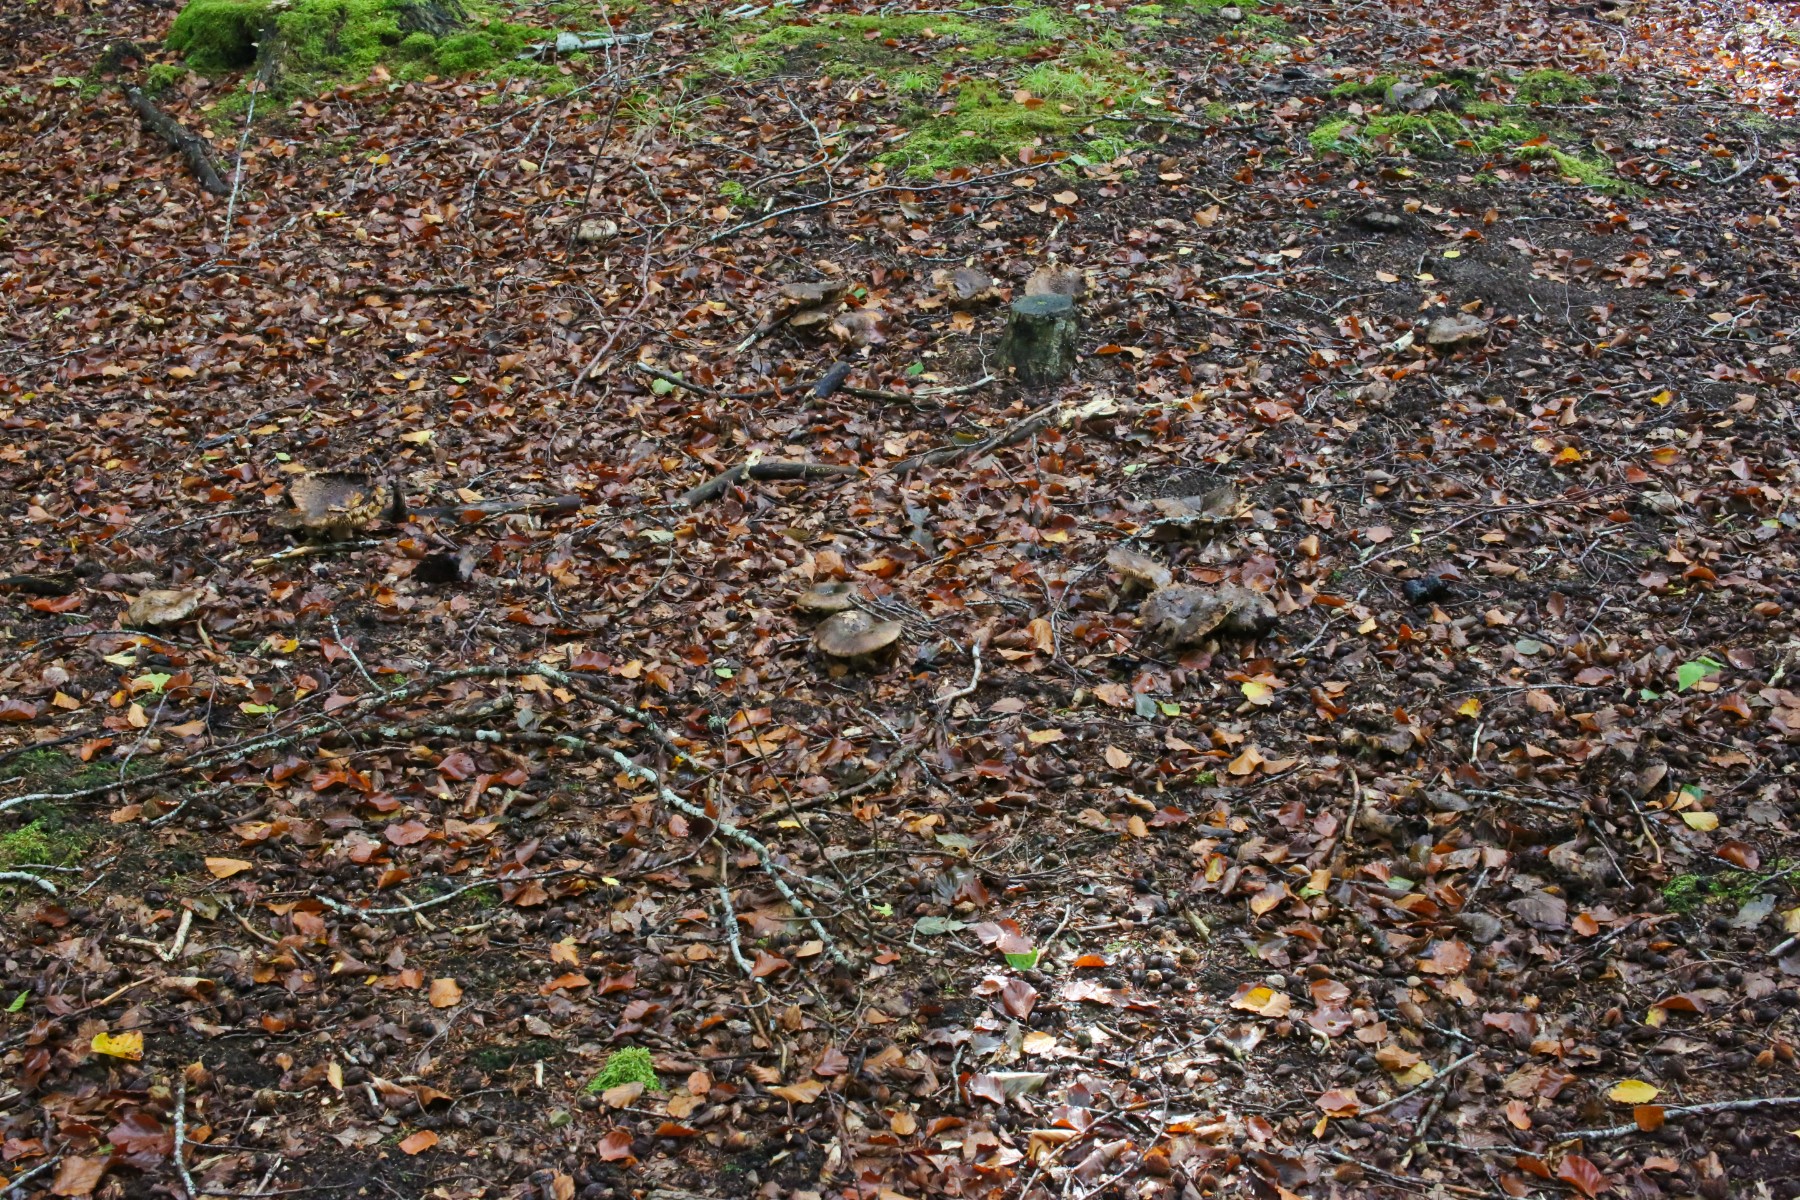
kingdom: Fungi
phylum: Basidiomycota
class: Agaricomycetes
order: Russulales
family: Russulaceae
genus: Russula
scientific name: Russula
